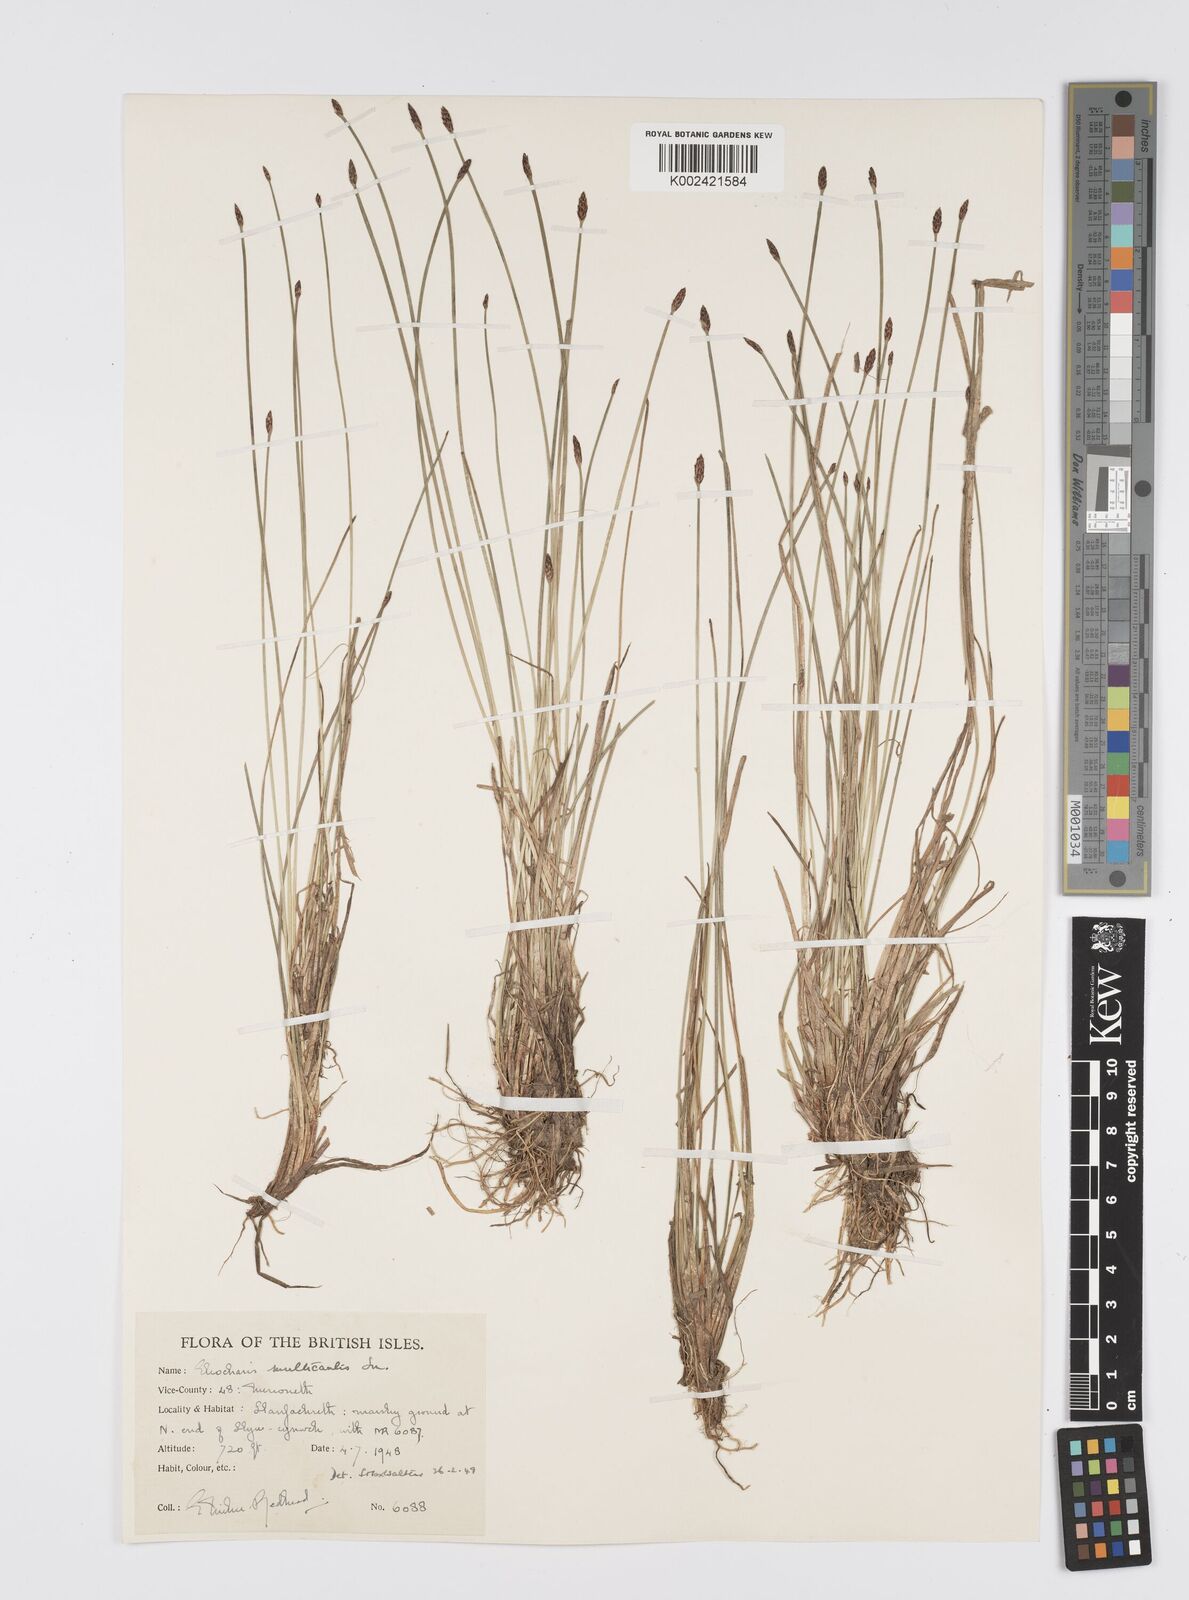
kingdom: Plantae
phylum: Tracheophyta
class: Liliopsida
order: Poales
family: Cyperaceae
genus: Eleocharis
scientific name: Eleocharis multicaulis
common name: Many-stalked spike-rush
